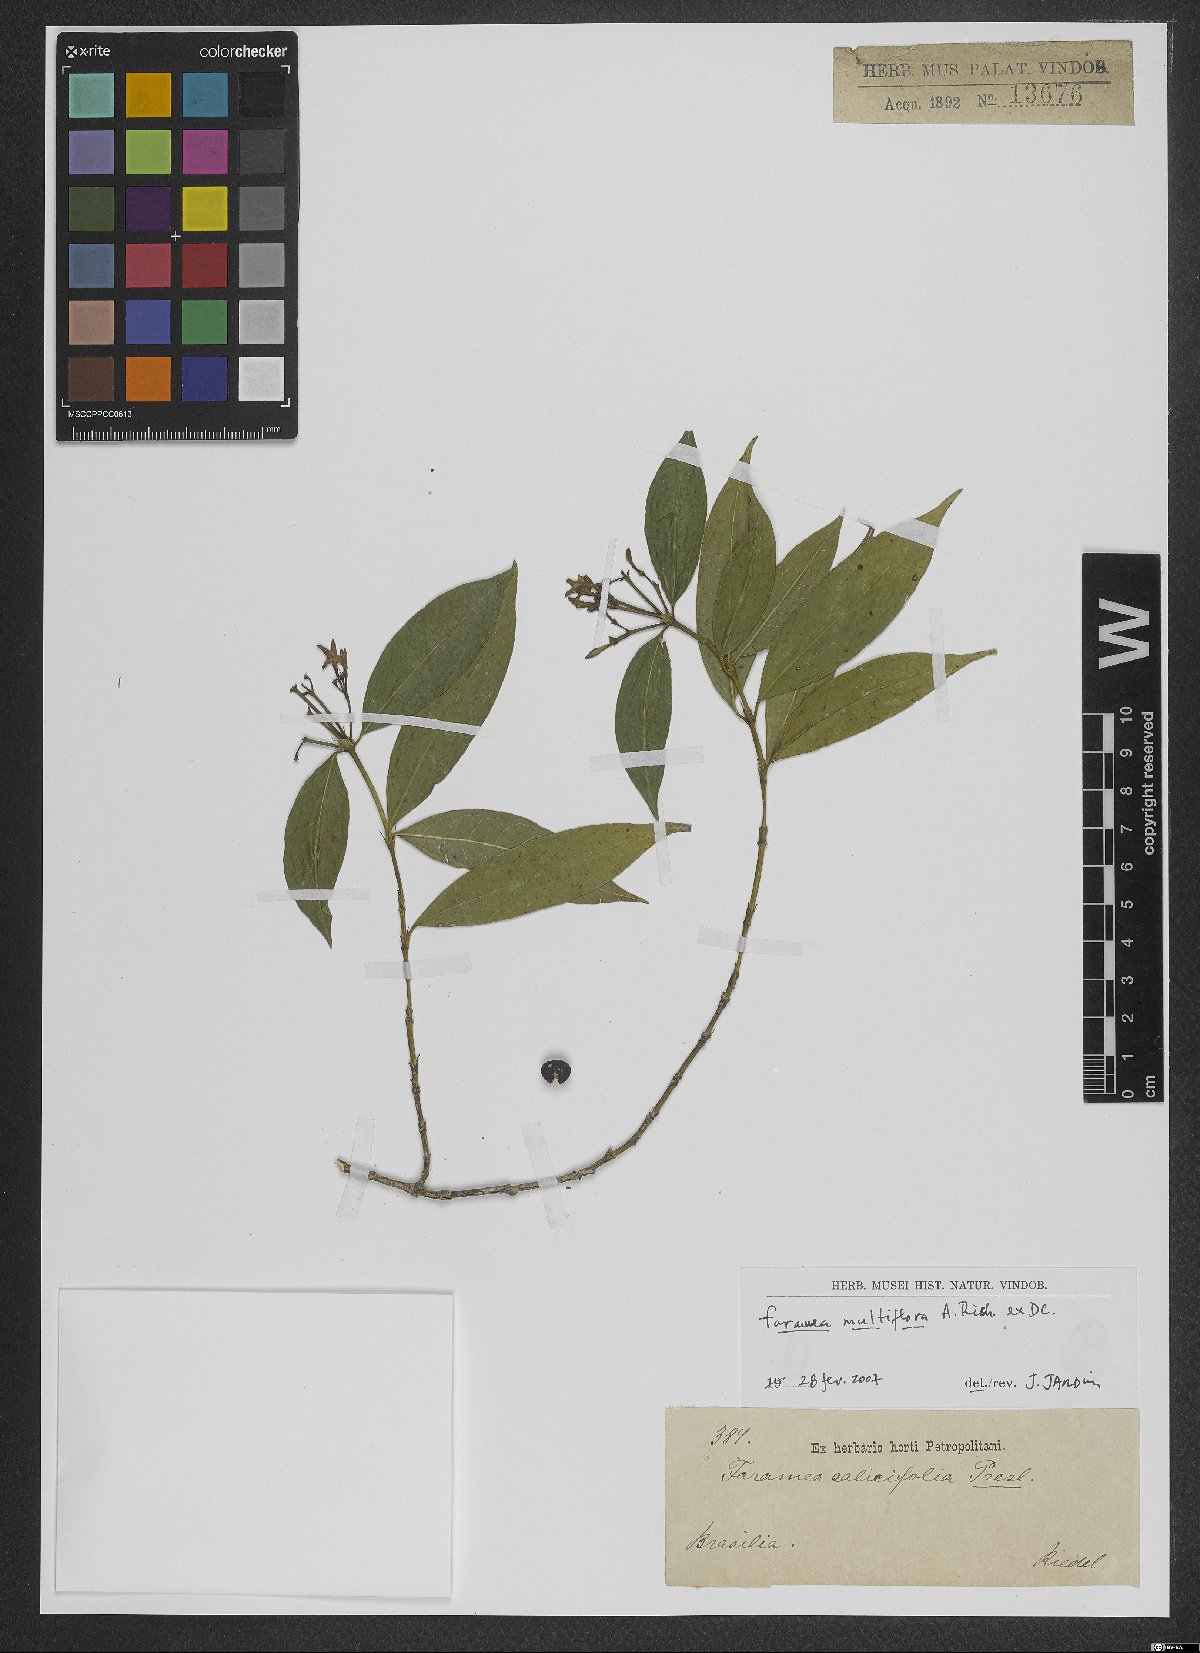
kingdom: Plantae
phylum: Tracheophyta
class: Magnoliopsida
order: Gentianales
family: Rubiaceae
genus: Faramea
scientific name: Faramea multiflora
